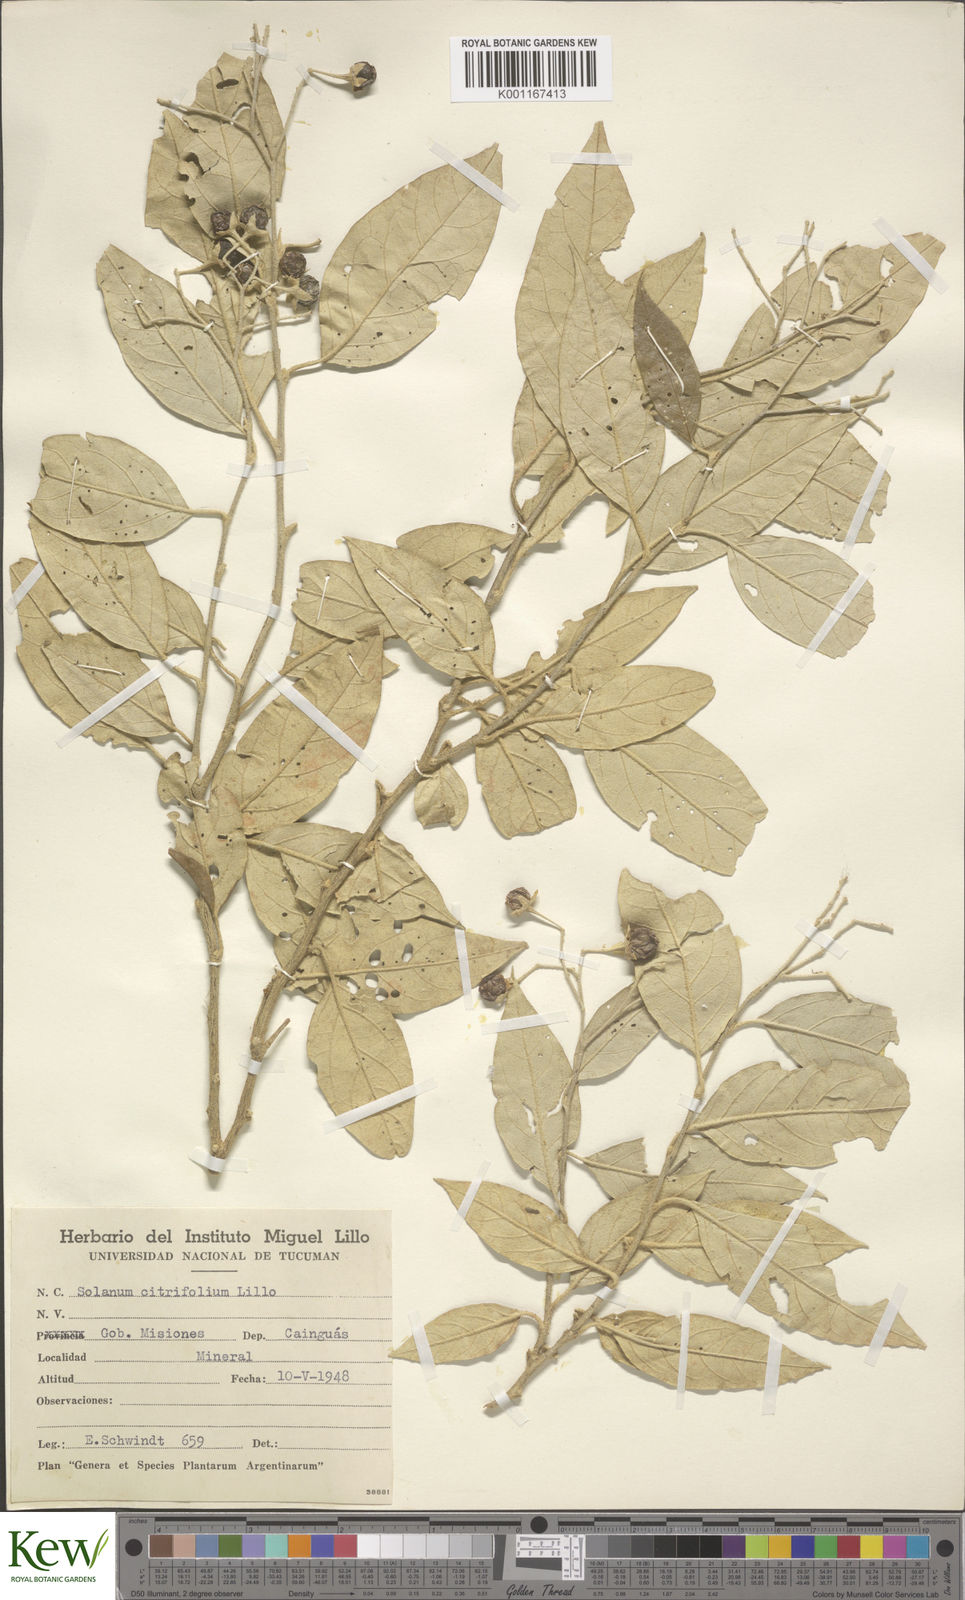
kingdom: Plantae
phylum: Tracheophyta
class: Magnoliopsida
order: Solanales
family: Solanaceae
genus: Solanum
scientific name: Solanum
